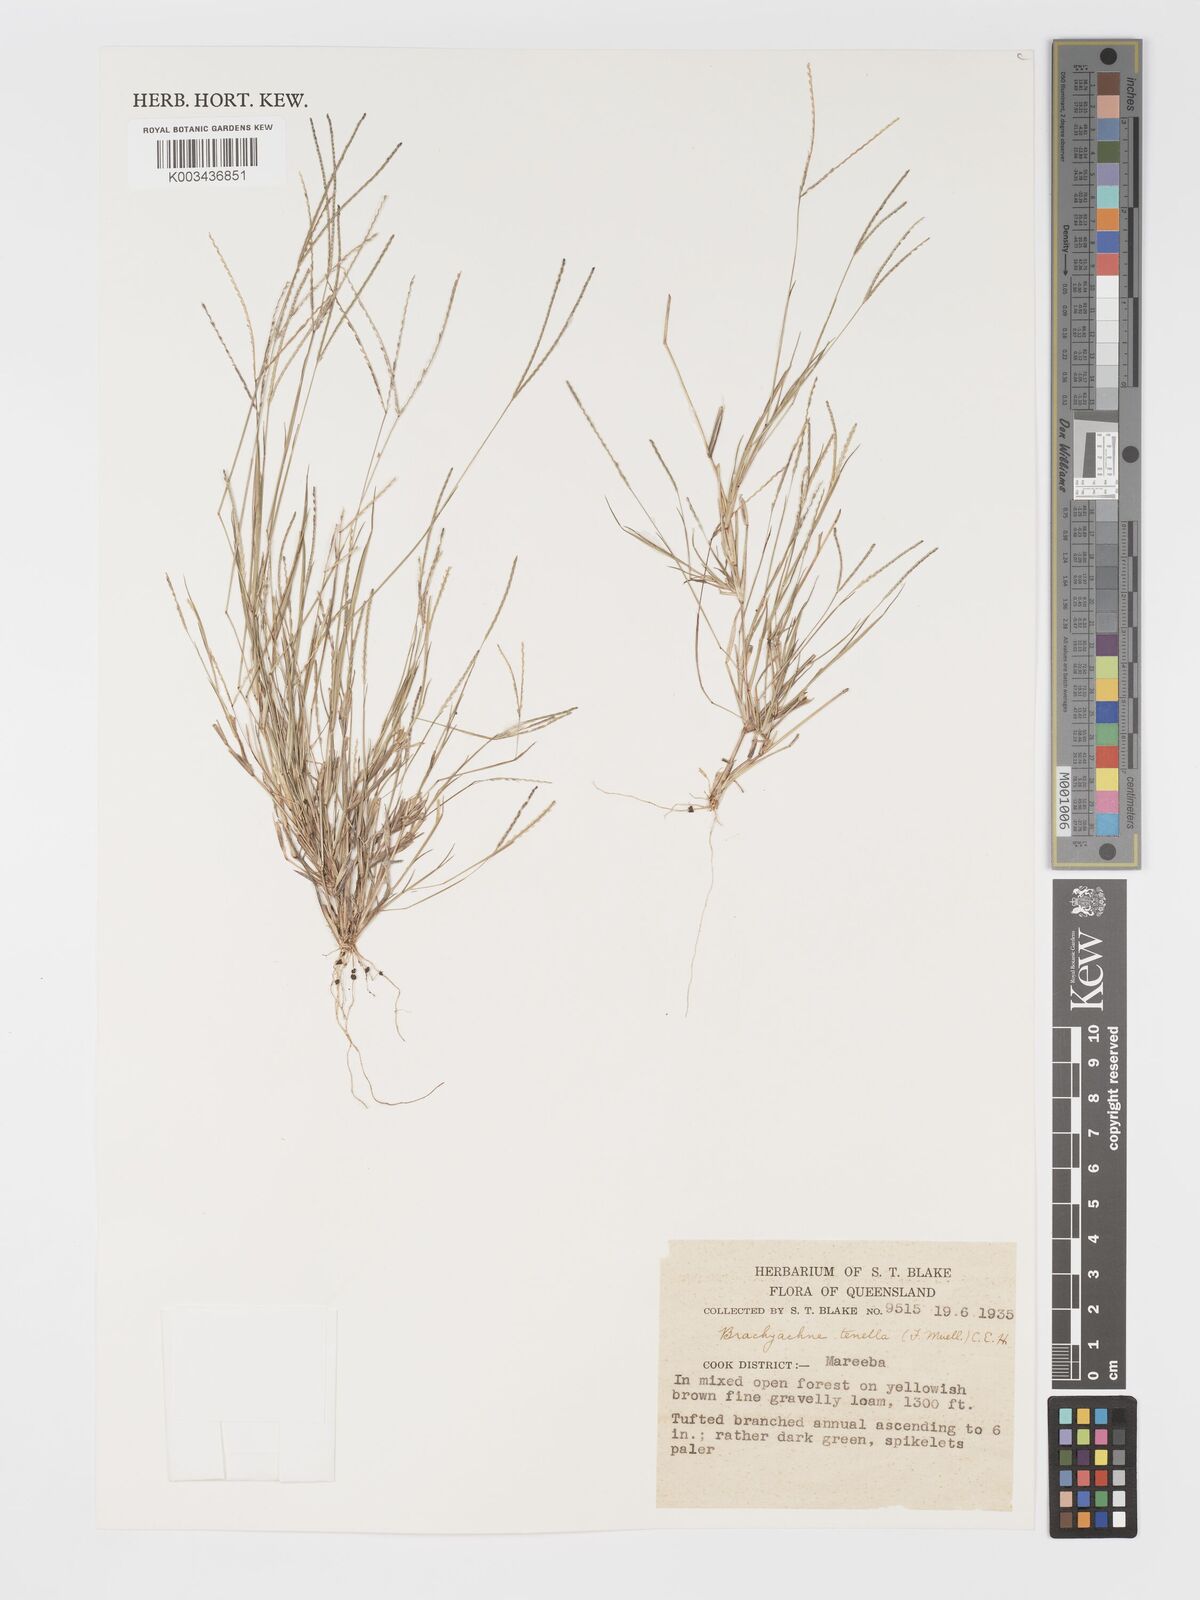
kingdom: Plantae
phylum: Tracheophyta
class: Liliopsida
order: Poales
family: Poaceae
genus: Cynodon
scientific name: Cynodon tenellus
